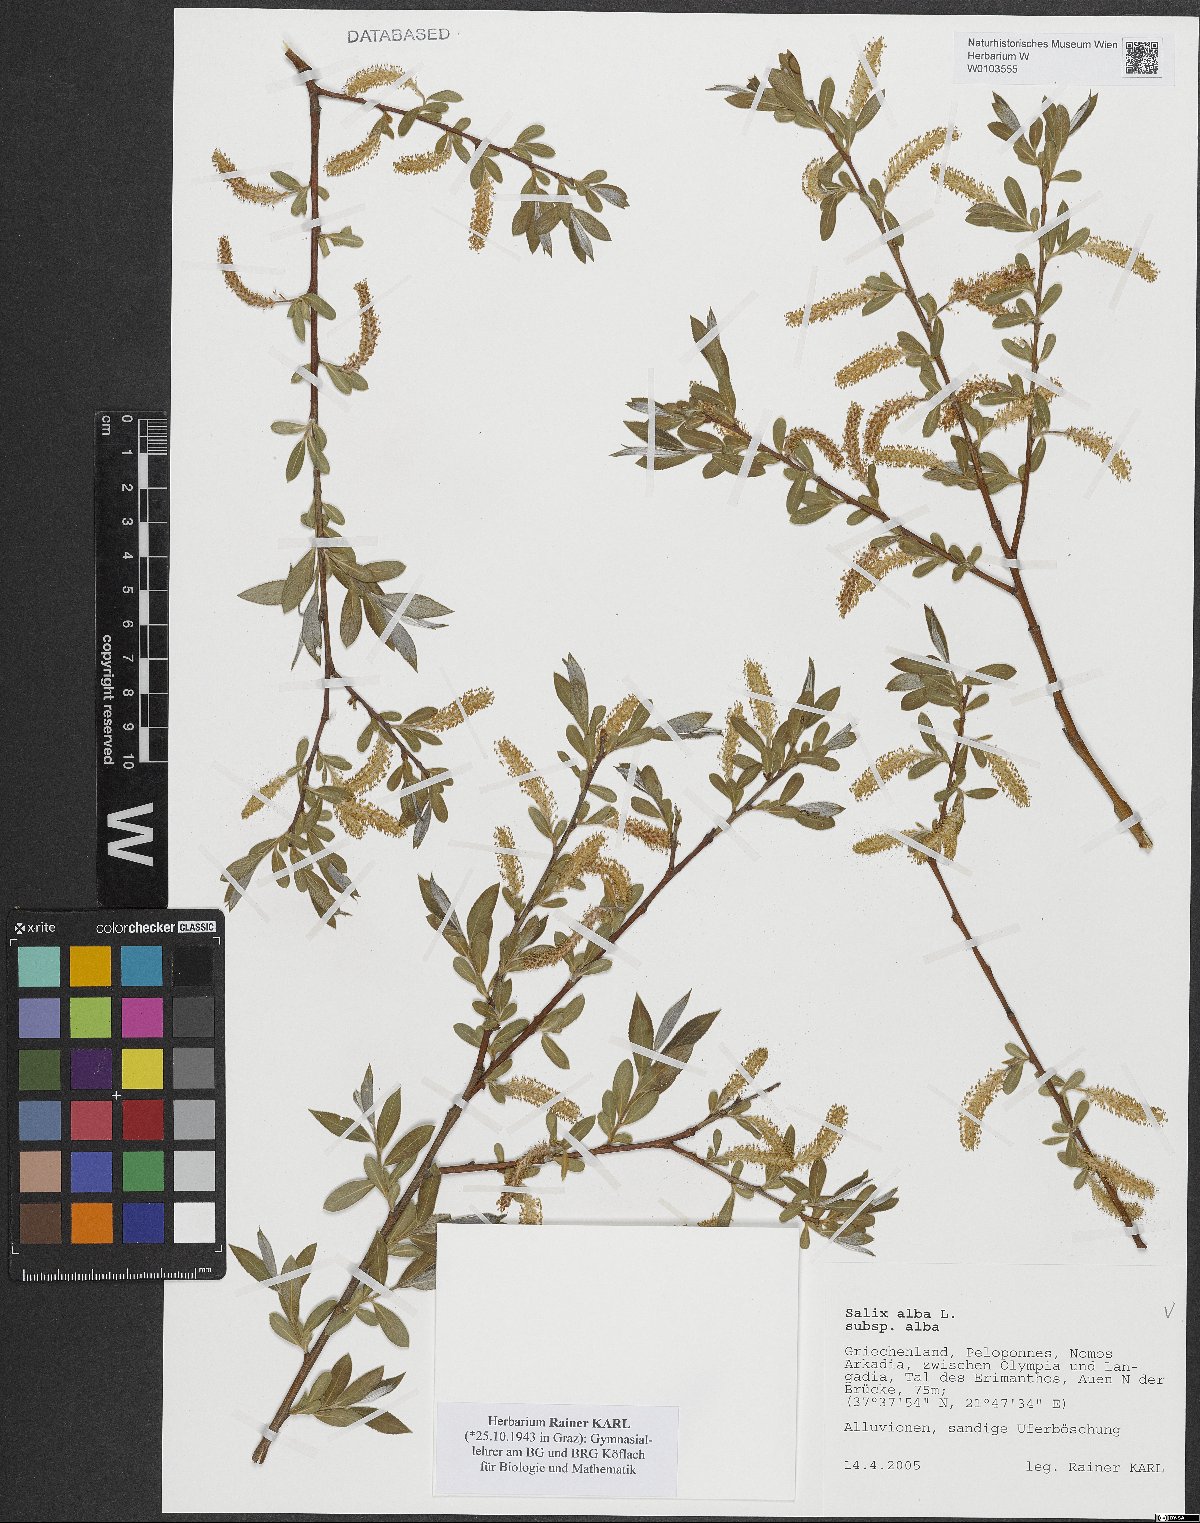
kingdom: Plantae
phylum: Tracheophyta
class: Magnoliopsida
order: Malpighiales
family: Salicaceae
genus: Salix
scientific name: Salix alba
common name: White willow
